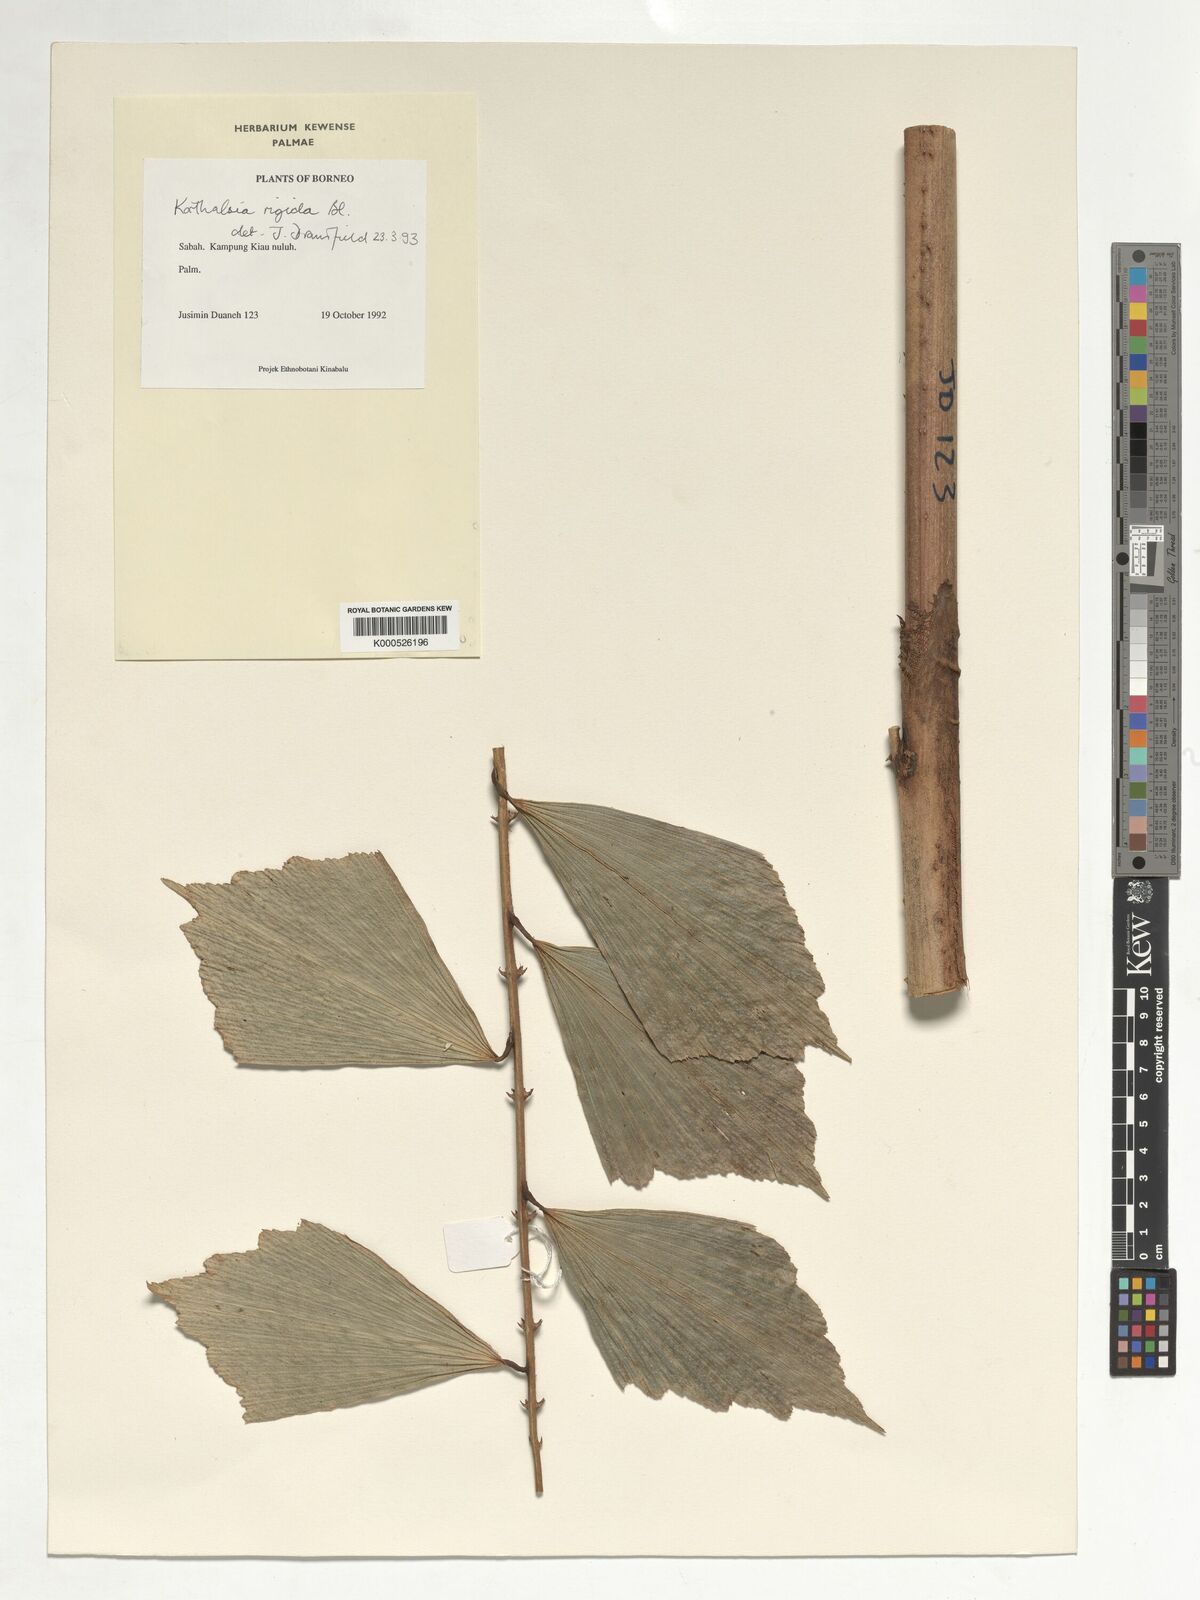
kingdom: Plantae
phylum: Tracheophyta
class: Liliopsida
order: Arecales
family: Arecaceae
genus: Korthalsia
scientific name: Korthalsia rigida
